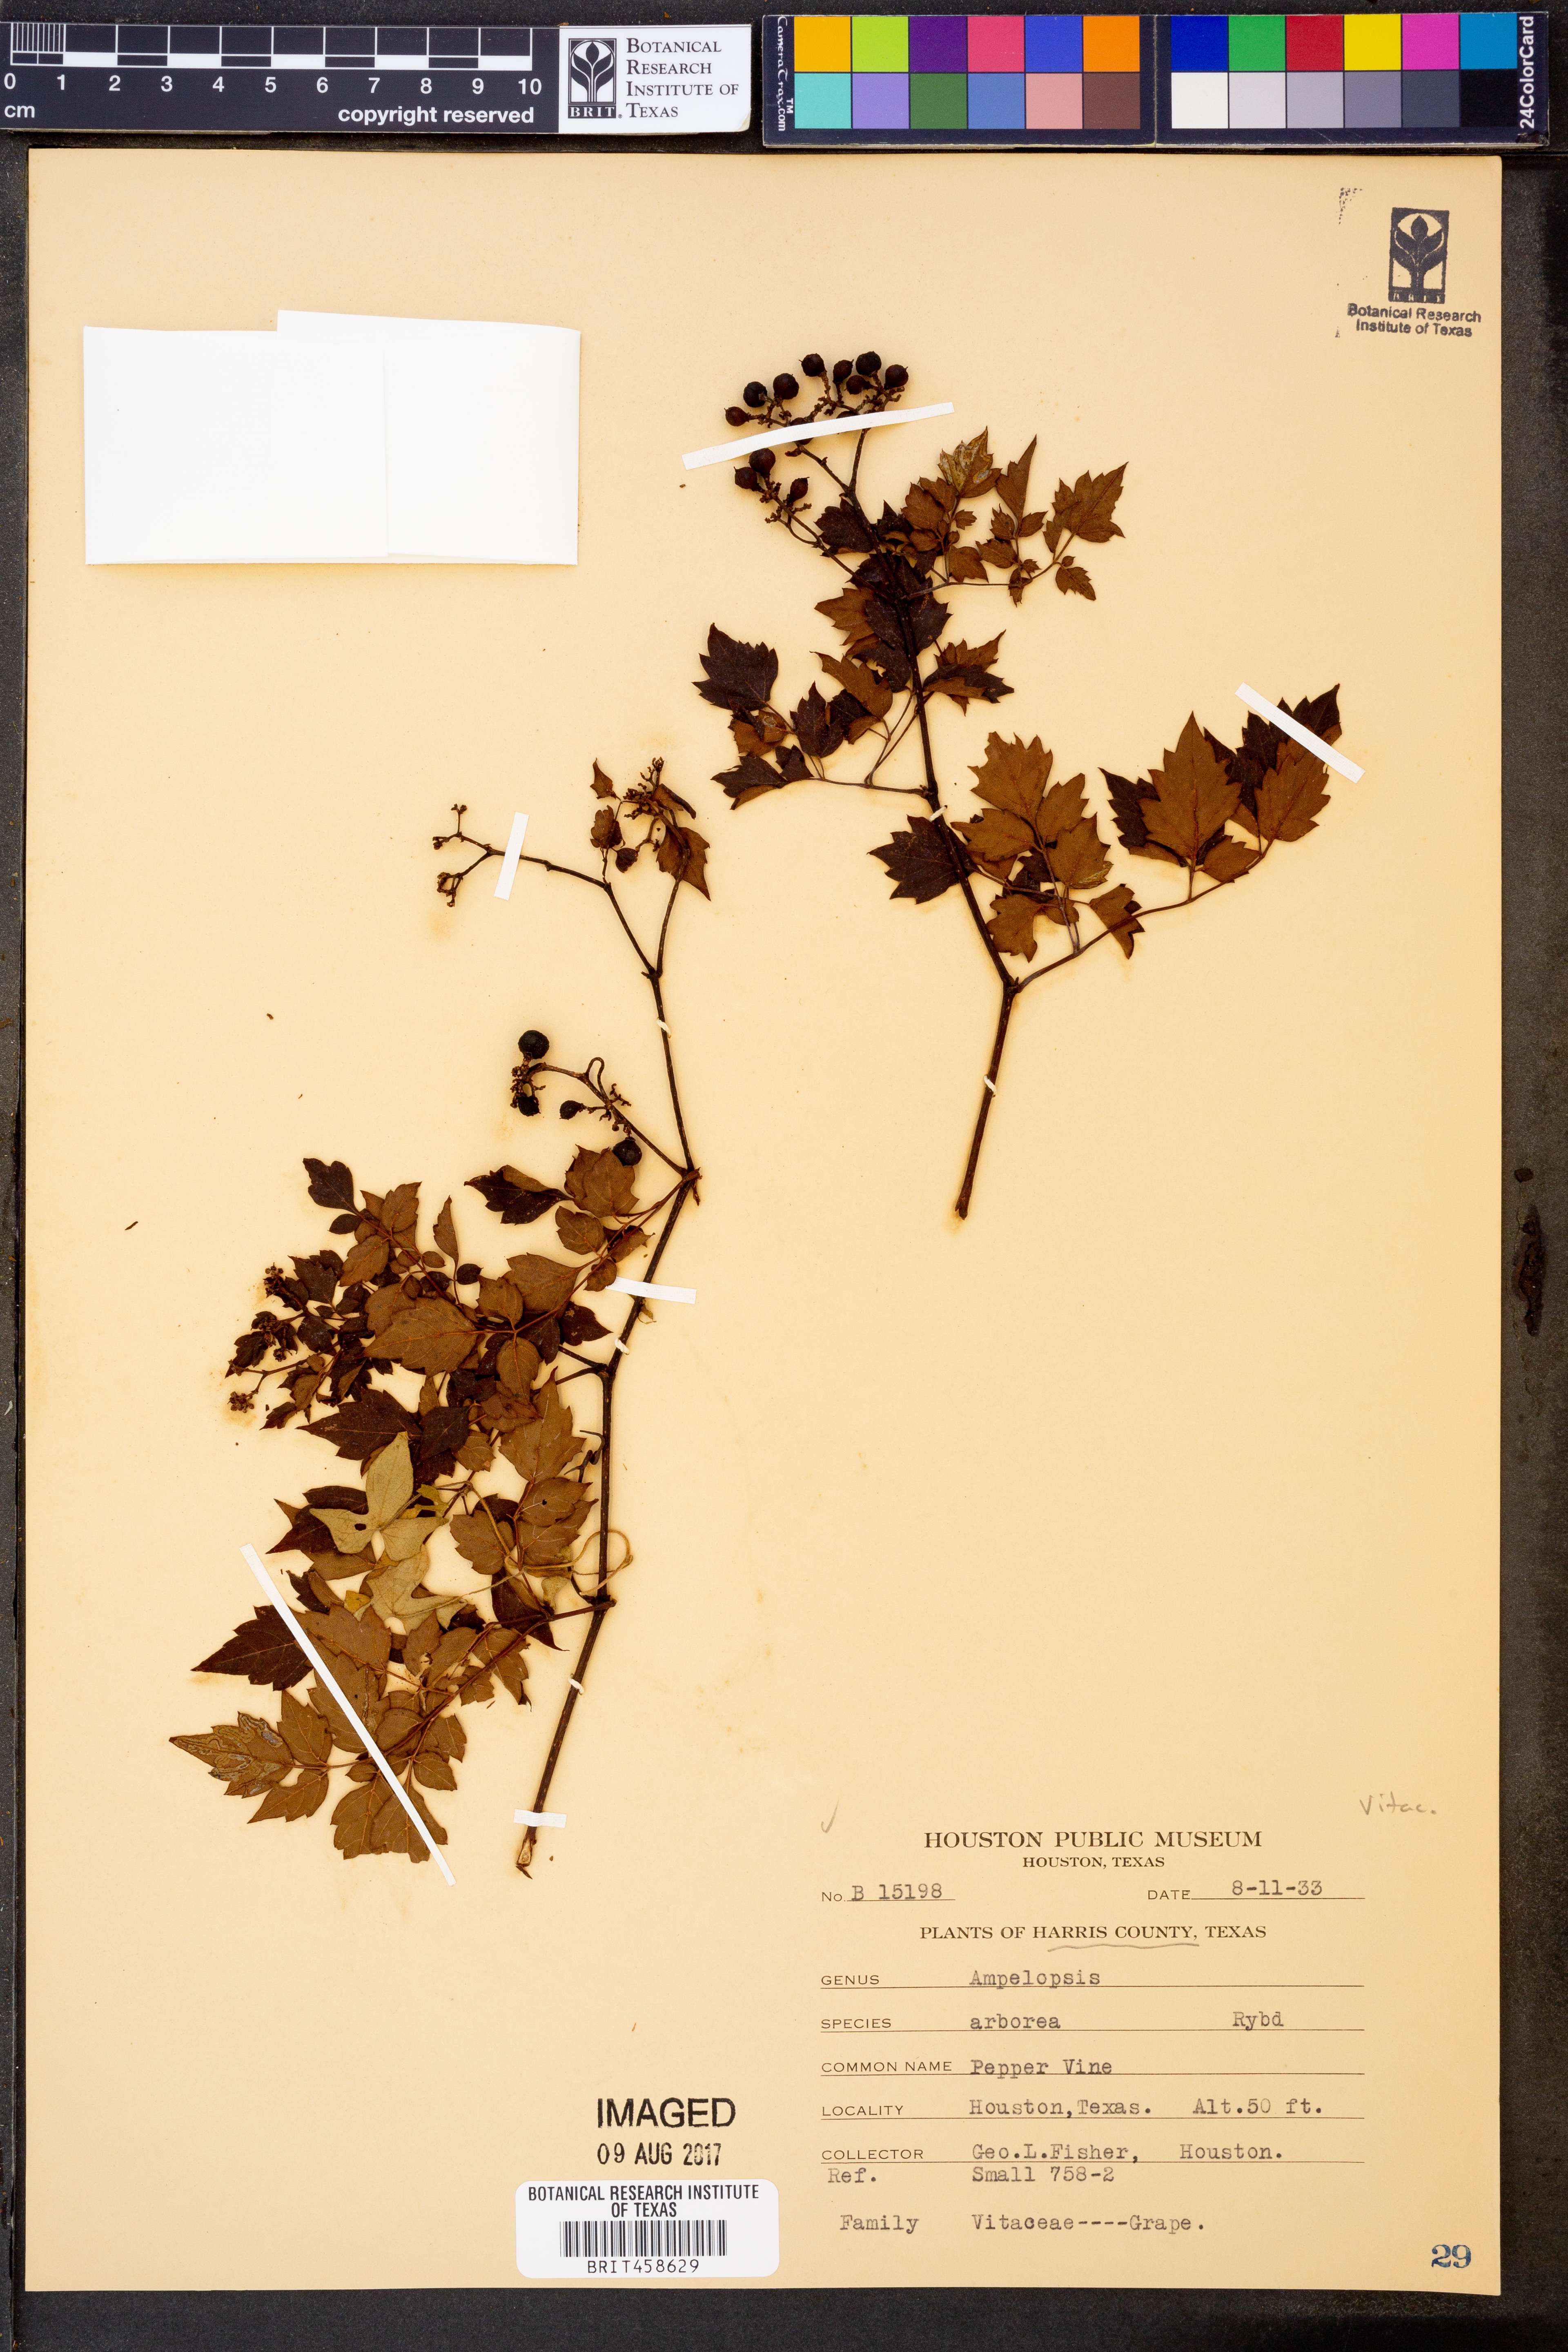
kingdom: Plantae
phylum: Tracheophyta
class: Magnoliopsida
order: Vitales
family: Vitaceae
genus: Nekemias
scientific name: Nekemias arborea
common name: Peppervine
